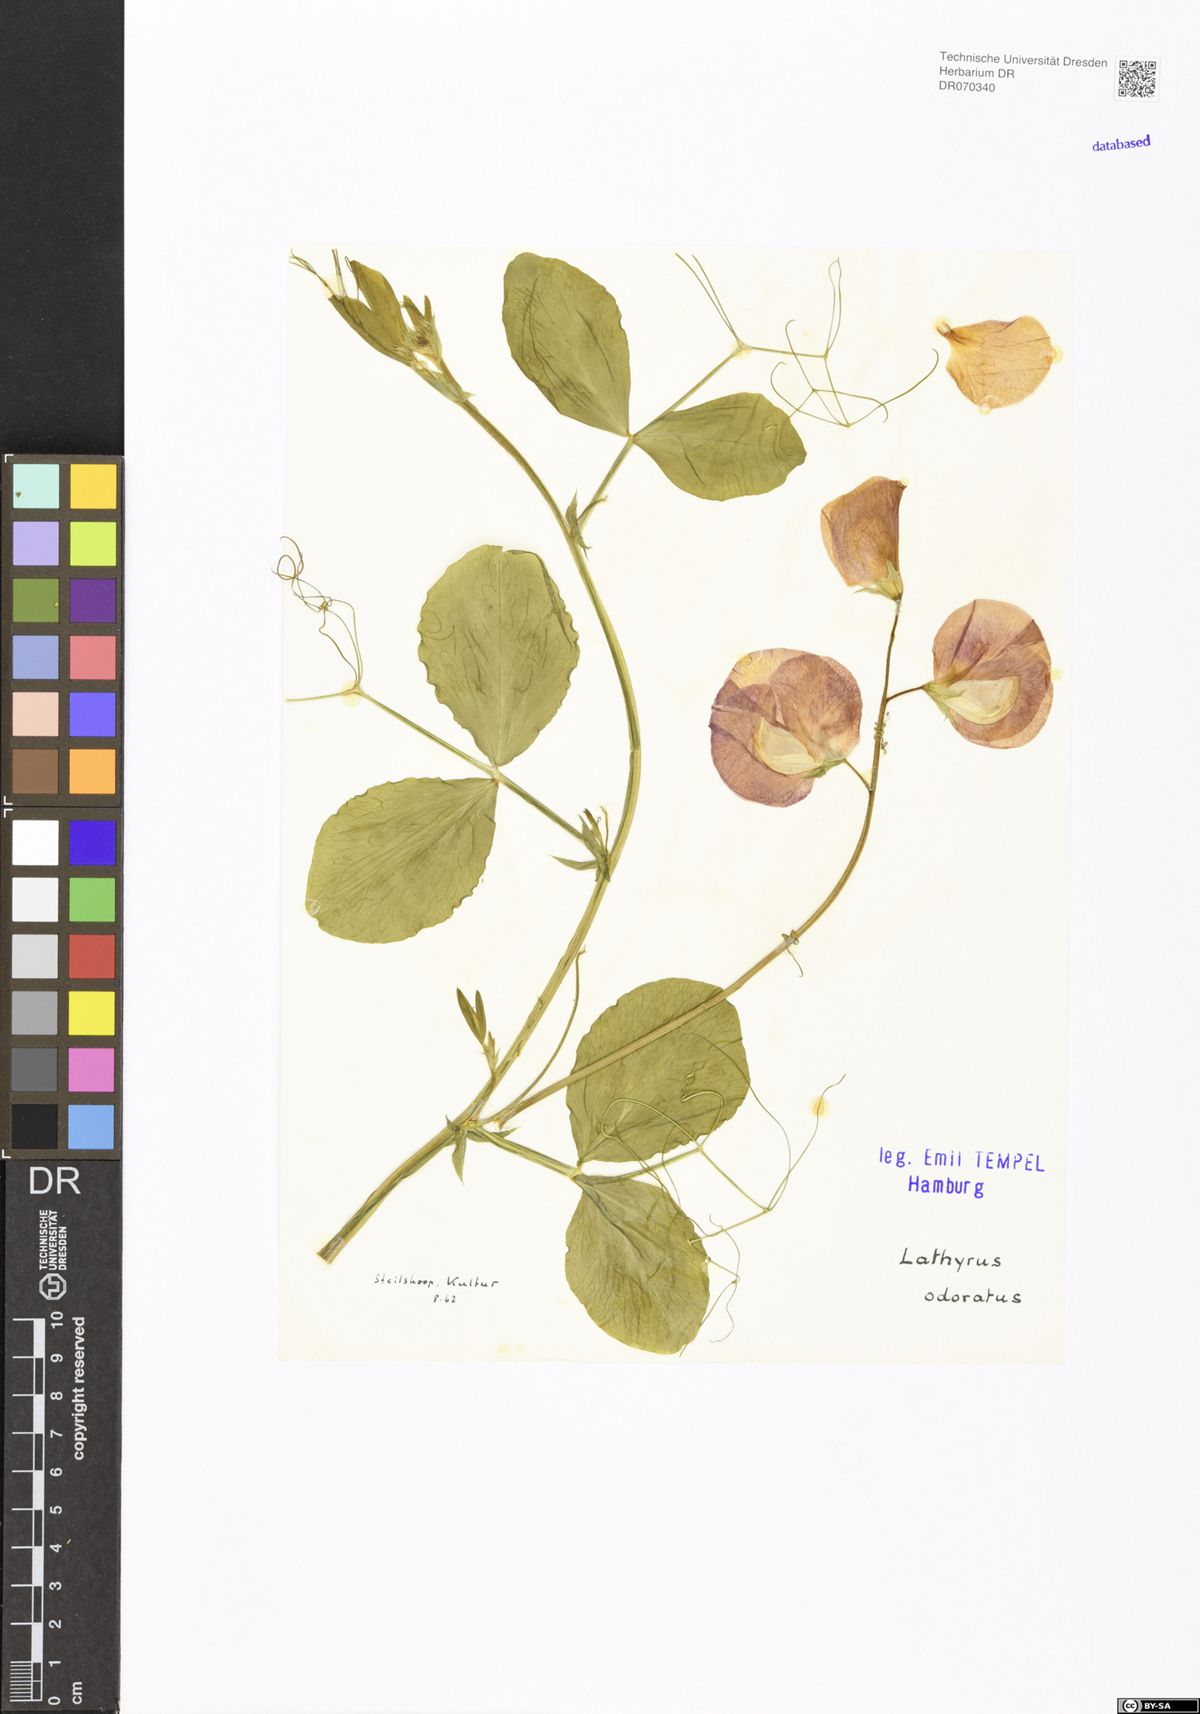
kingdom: Plantae
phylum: Tracheophyta
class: Magnoliopsida
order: Fabales
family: Fabaceae
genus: Lathyrus
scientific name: Lathyrus odoratus
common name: Sweet pea
